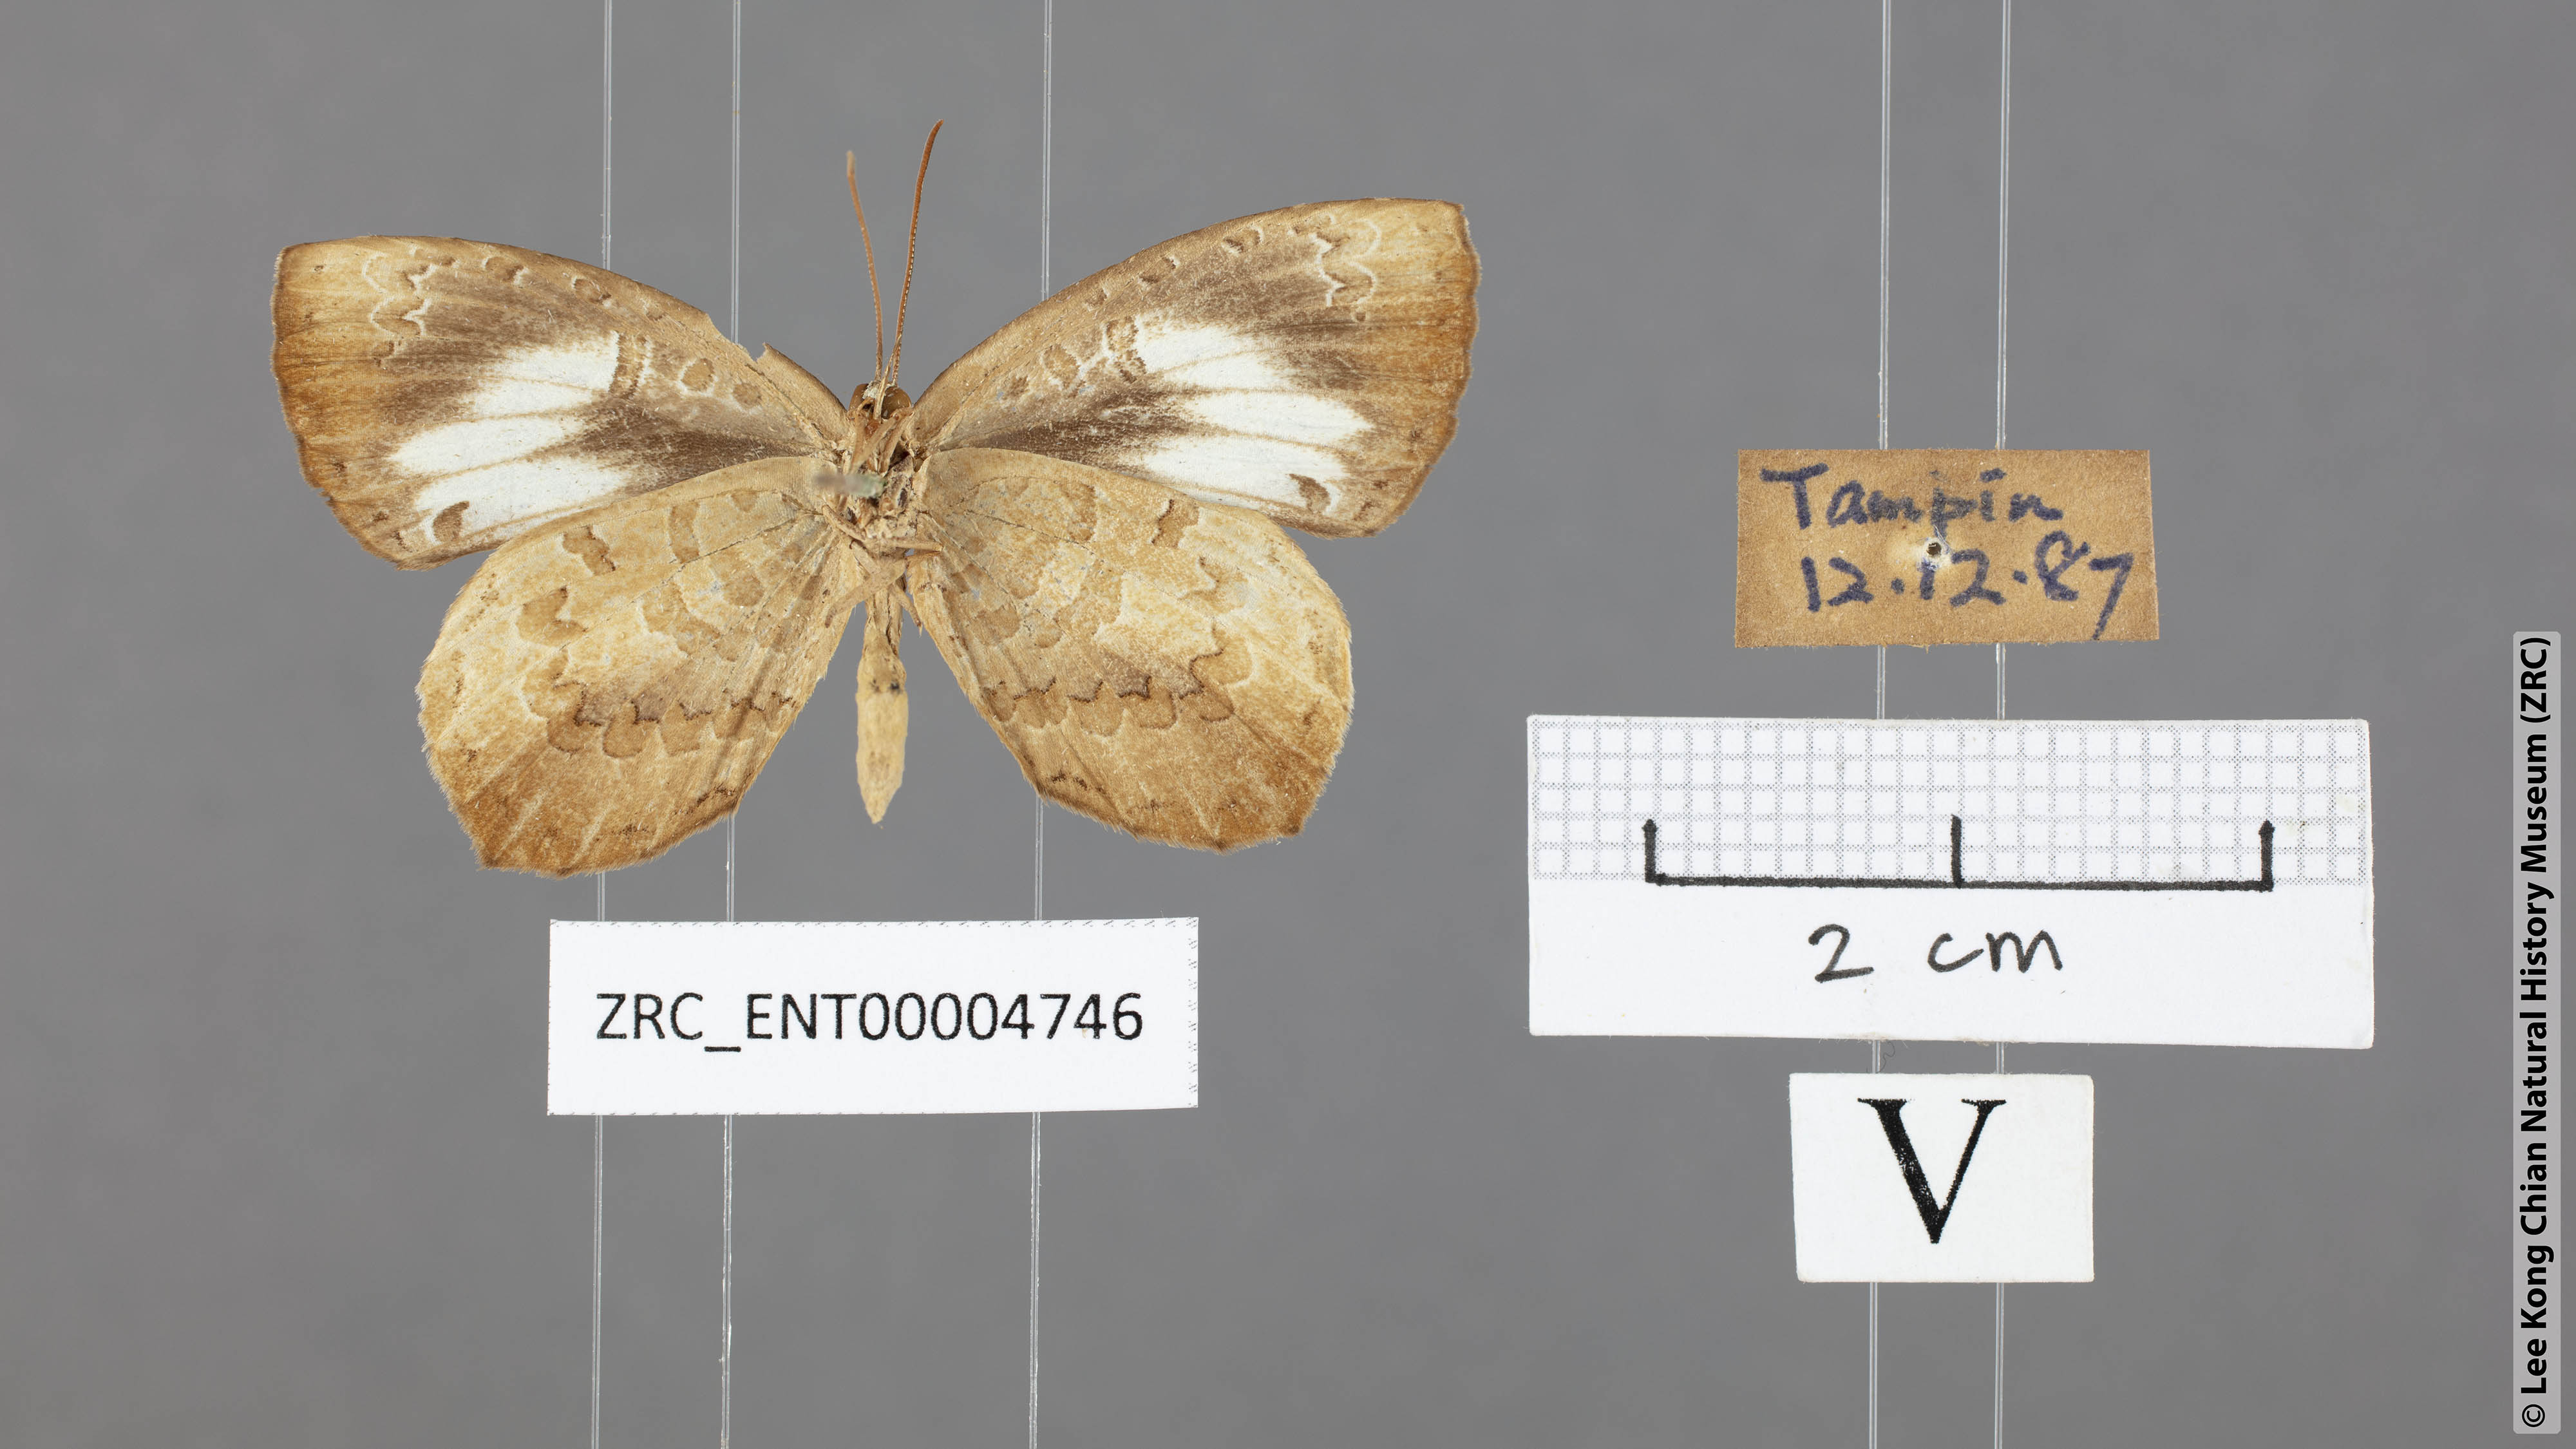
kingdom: Animalia
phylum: Arthropoda
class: Insecta
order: Lepidoptera
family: Lycaenidae
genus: Miletus
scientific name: Miletus symethus
